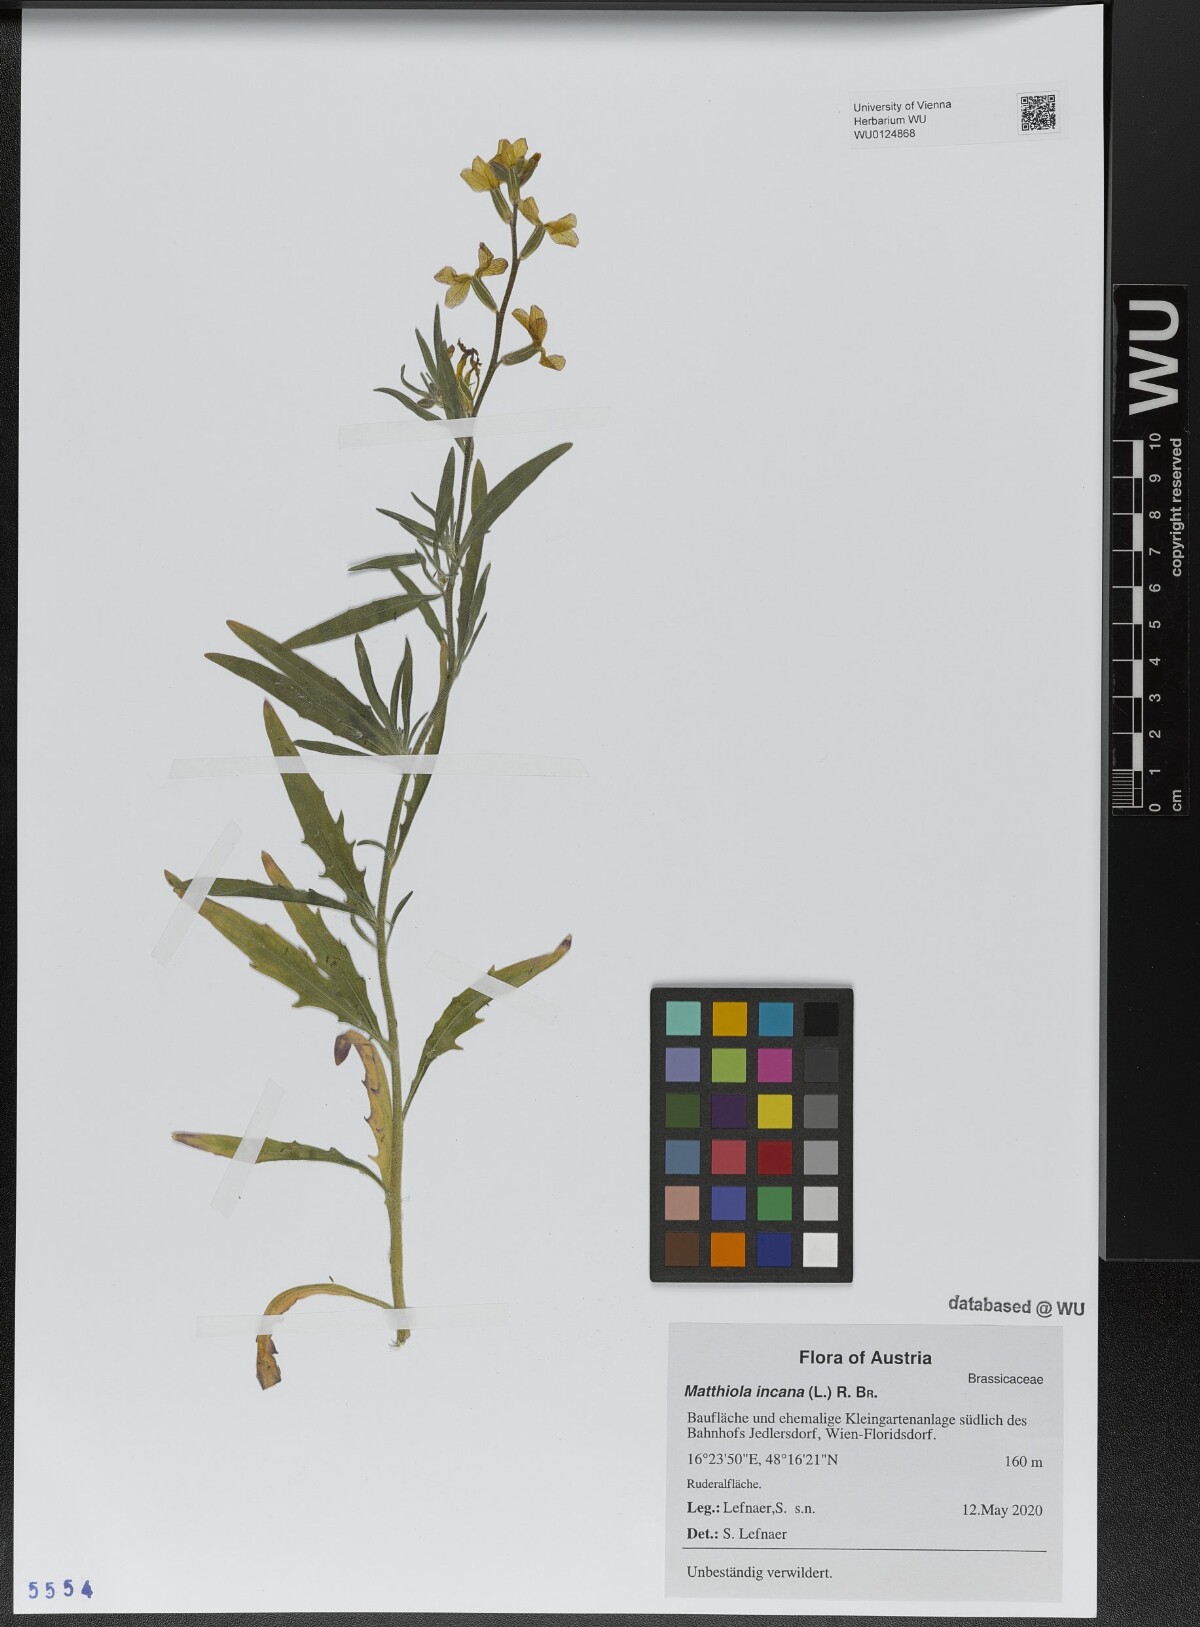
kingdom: Plantae
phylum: Tracheophyta
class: Magnoliopsida
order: Brassicales
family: Brassicaceae
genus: Matthiola
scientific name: Matthiola incana
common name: Hoary stock
